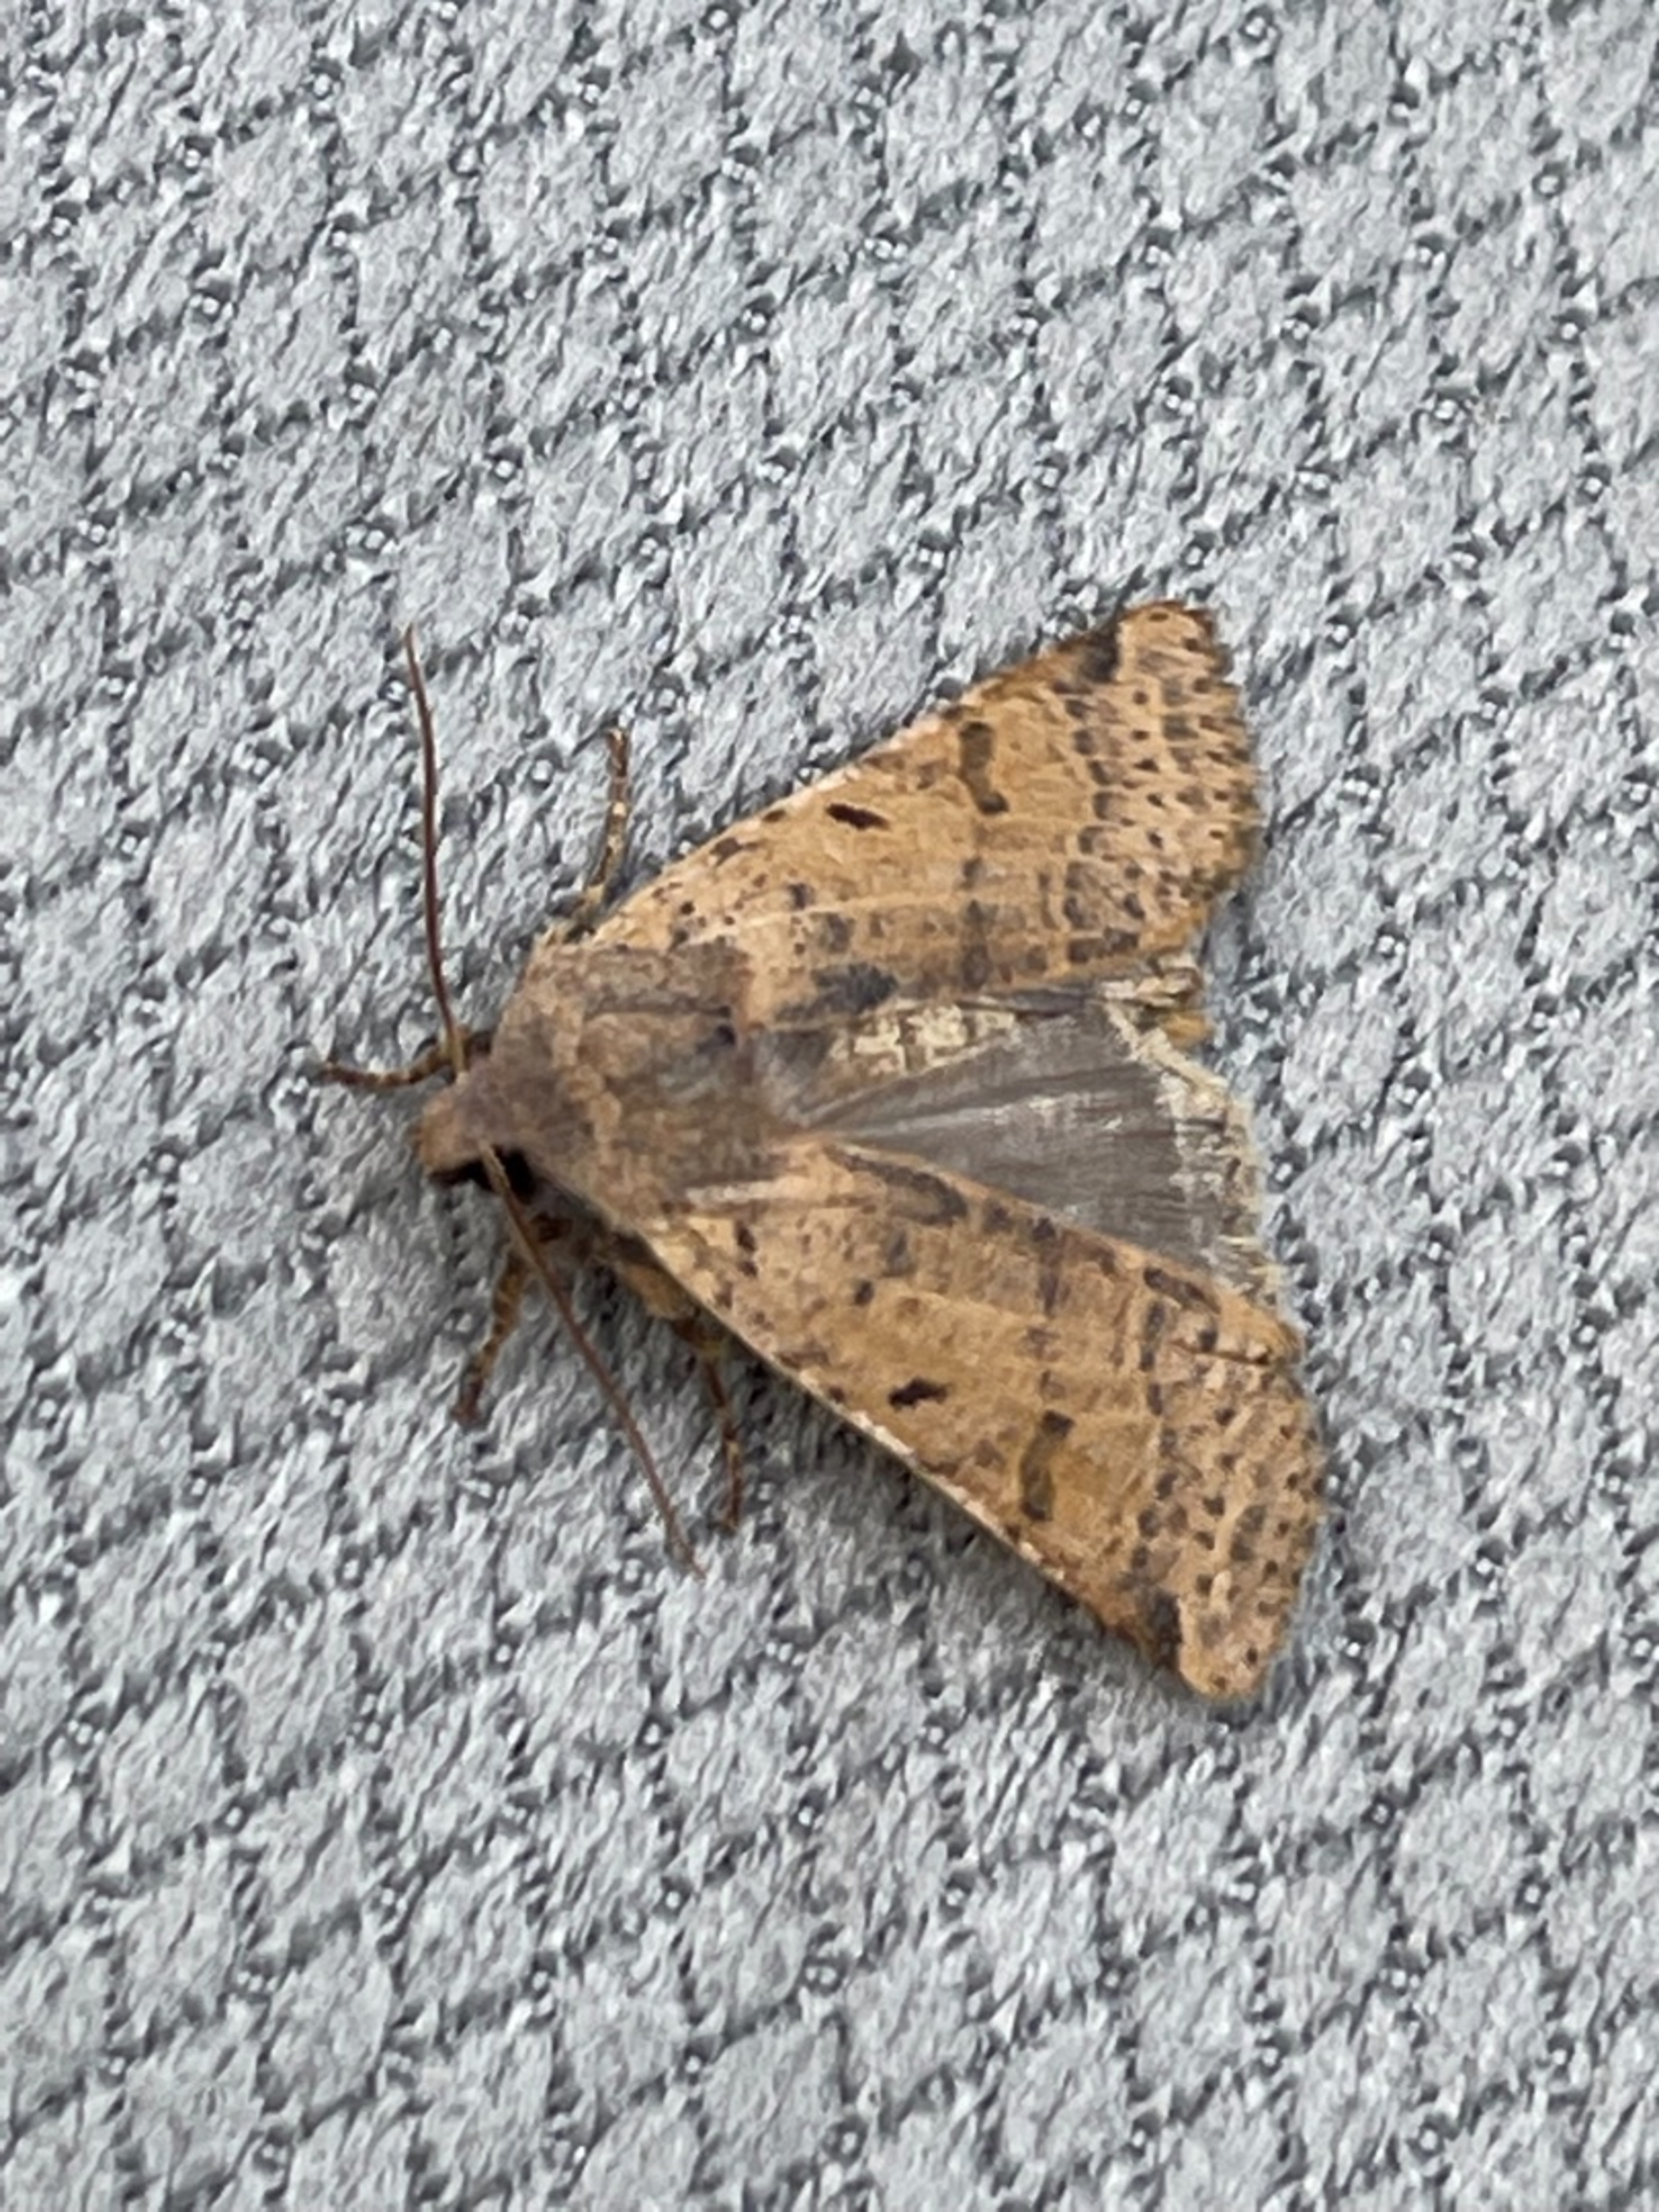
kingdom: Animalia
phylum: Arthropoda
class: Insecta
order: Lepidoptera
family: Noctuidae
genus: Agrochola
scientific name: Agrochola lychnidis
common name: Foranderlig jordfarveugle
